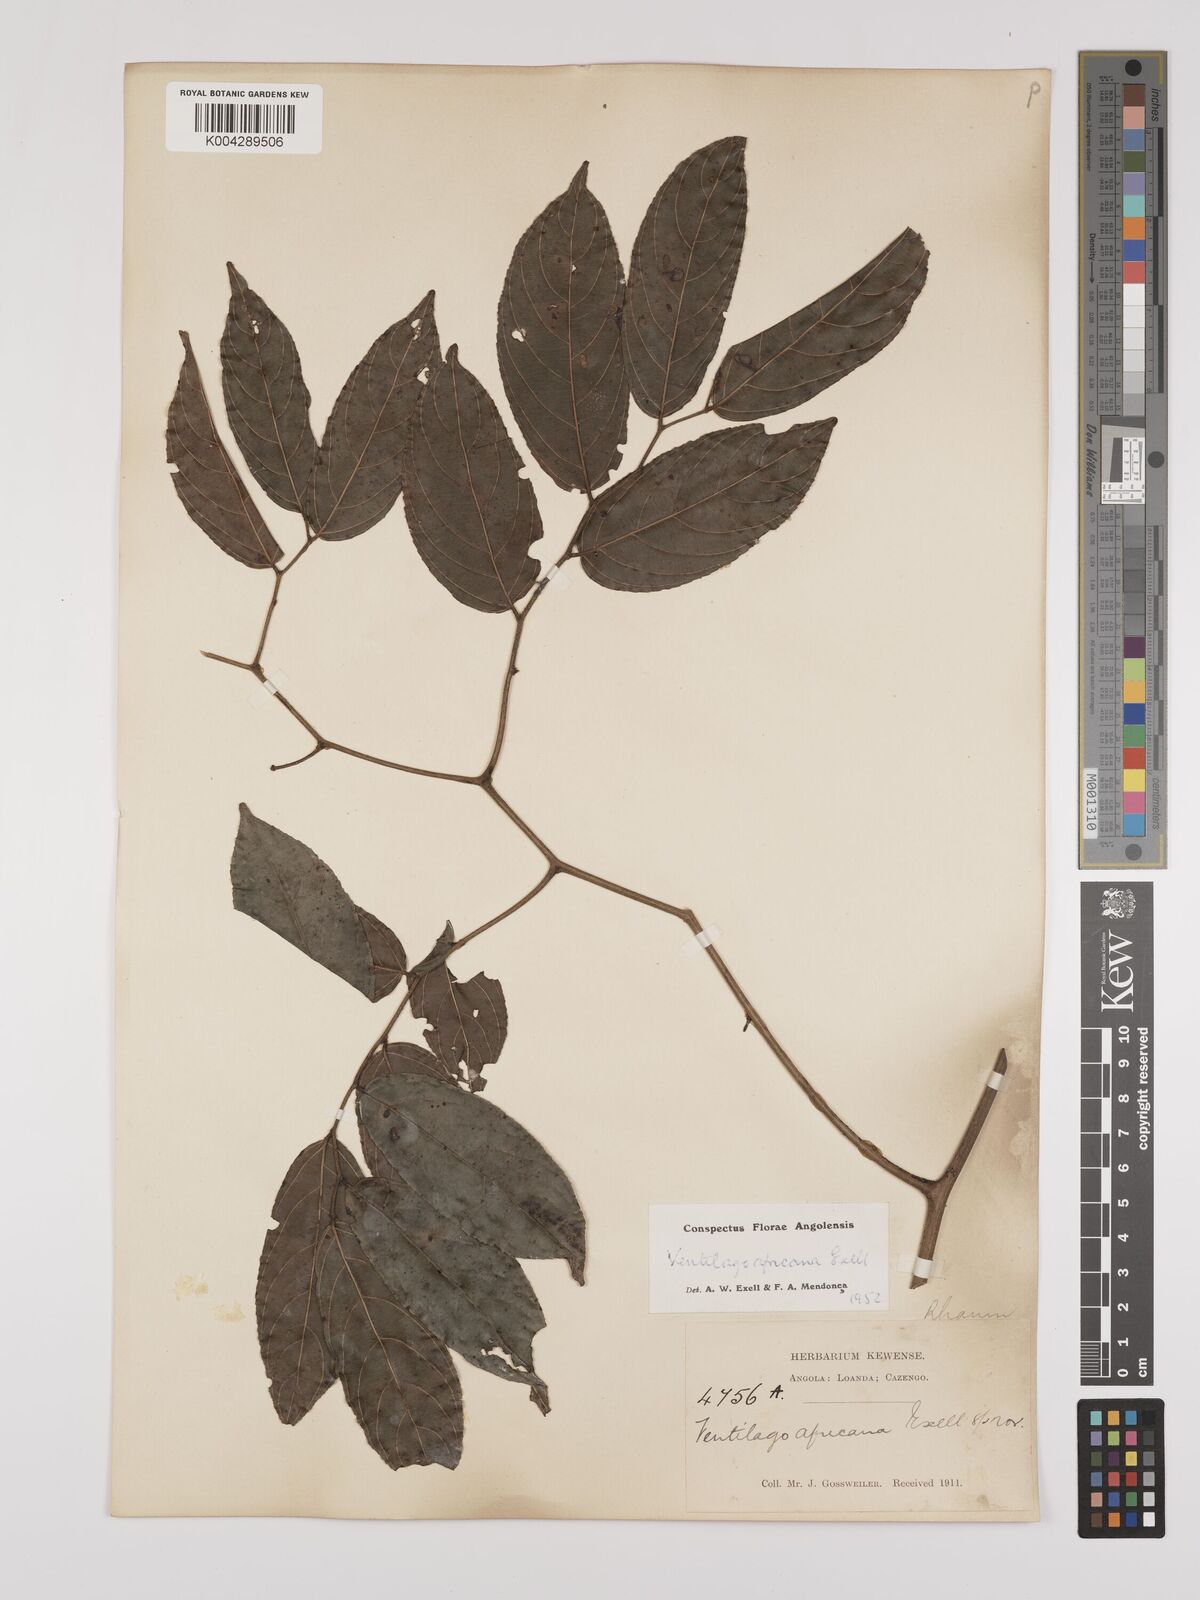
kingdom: Plantae
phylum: Tracheophyta
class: Magnoliopsida
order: Rosales
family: Rhamnaceae
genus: Ventilago
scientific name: Ventilago africana
